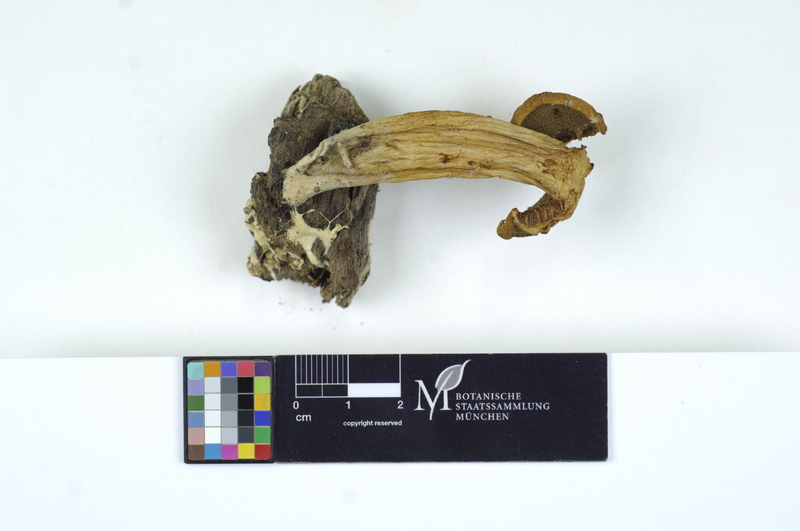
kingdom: Fungi
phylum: Basidiomycota
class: Agaricomycetes
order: Boletales
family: Boletaceae
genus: Xerocomus
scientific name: Xerocomus subtomentosus
